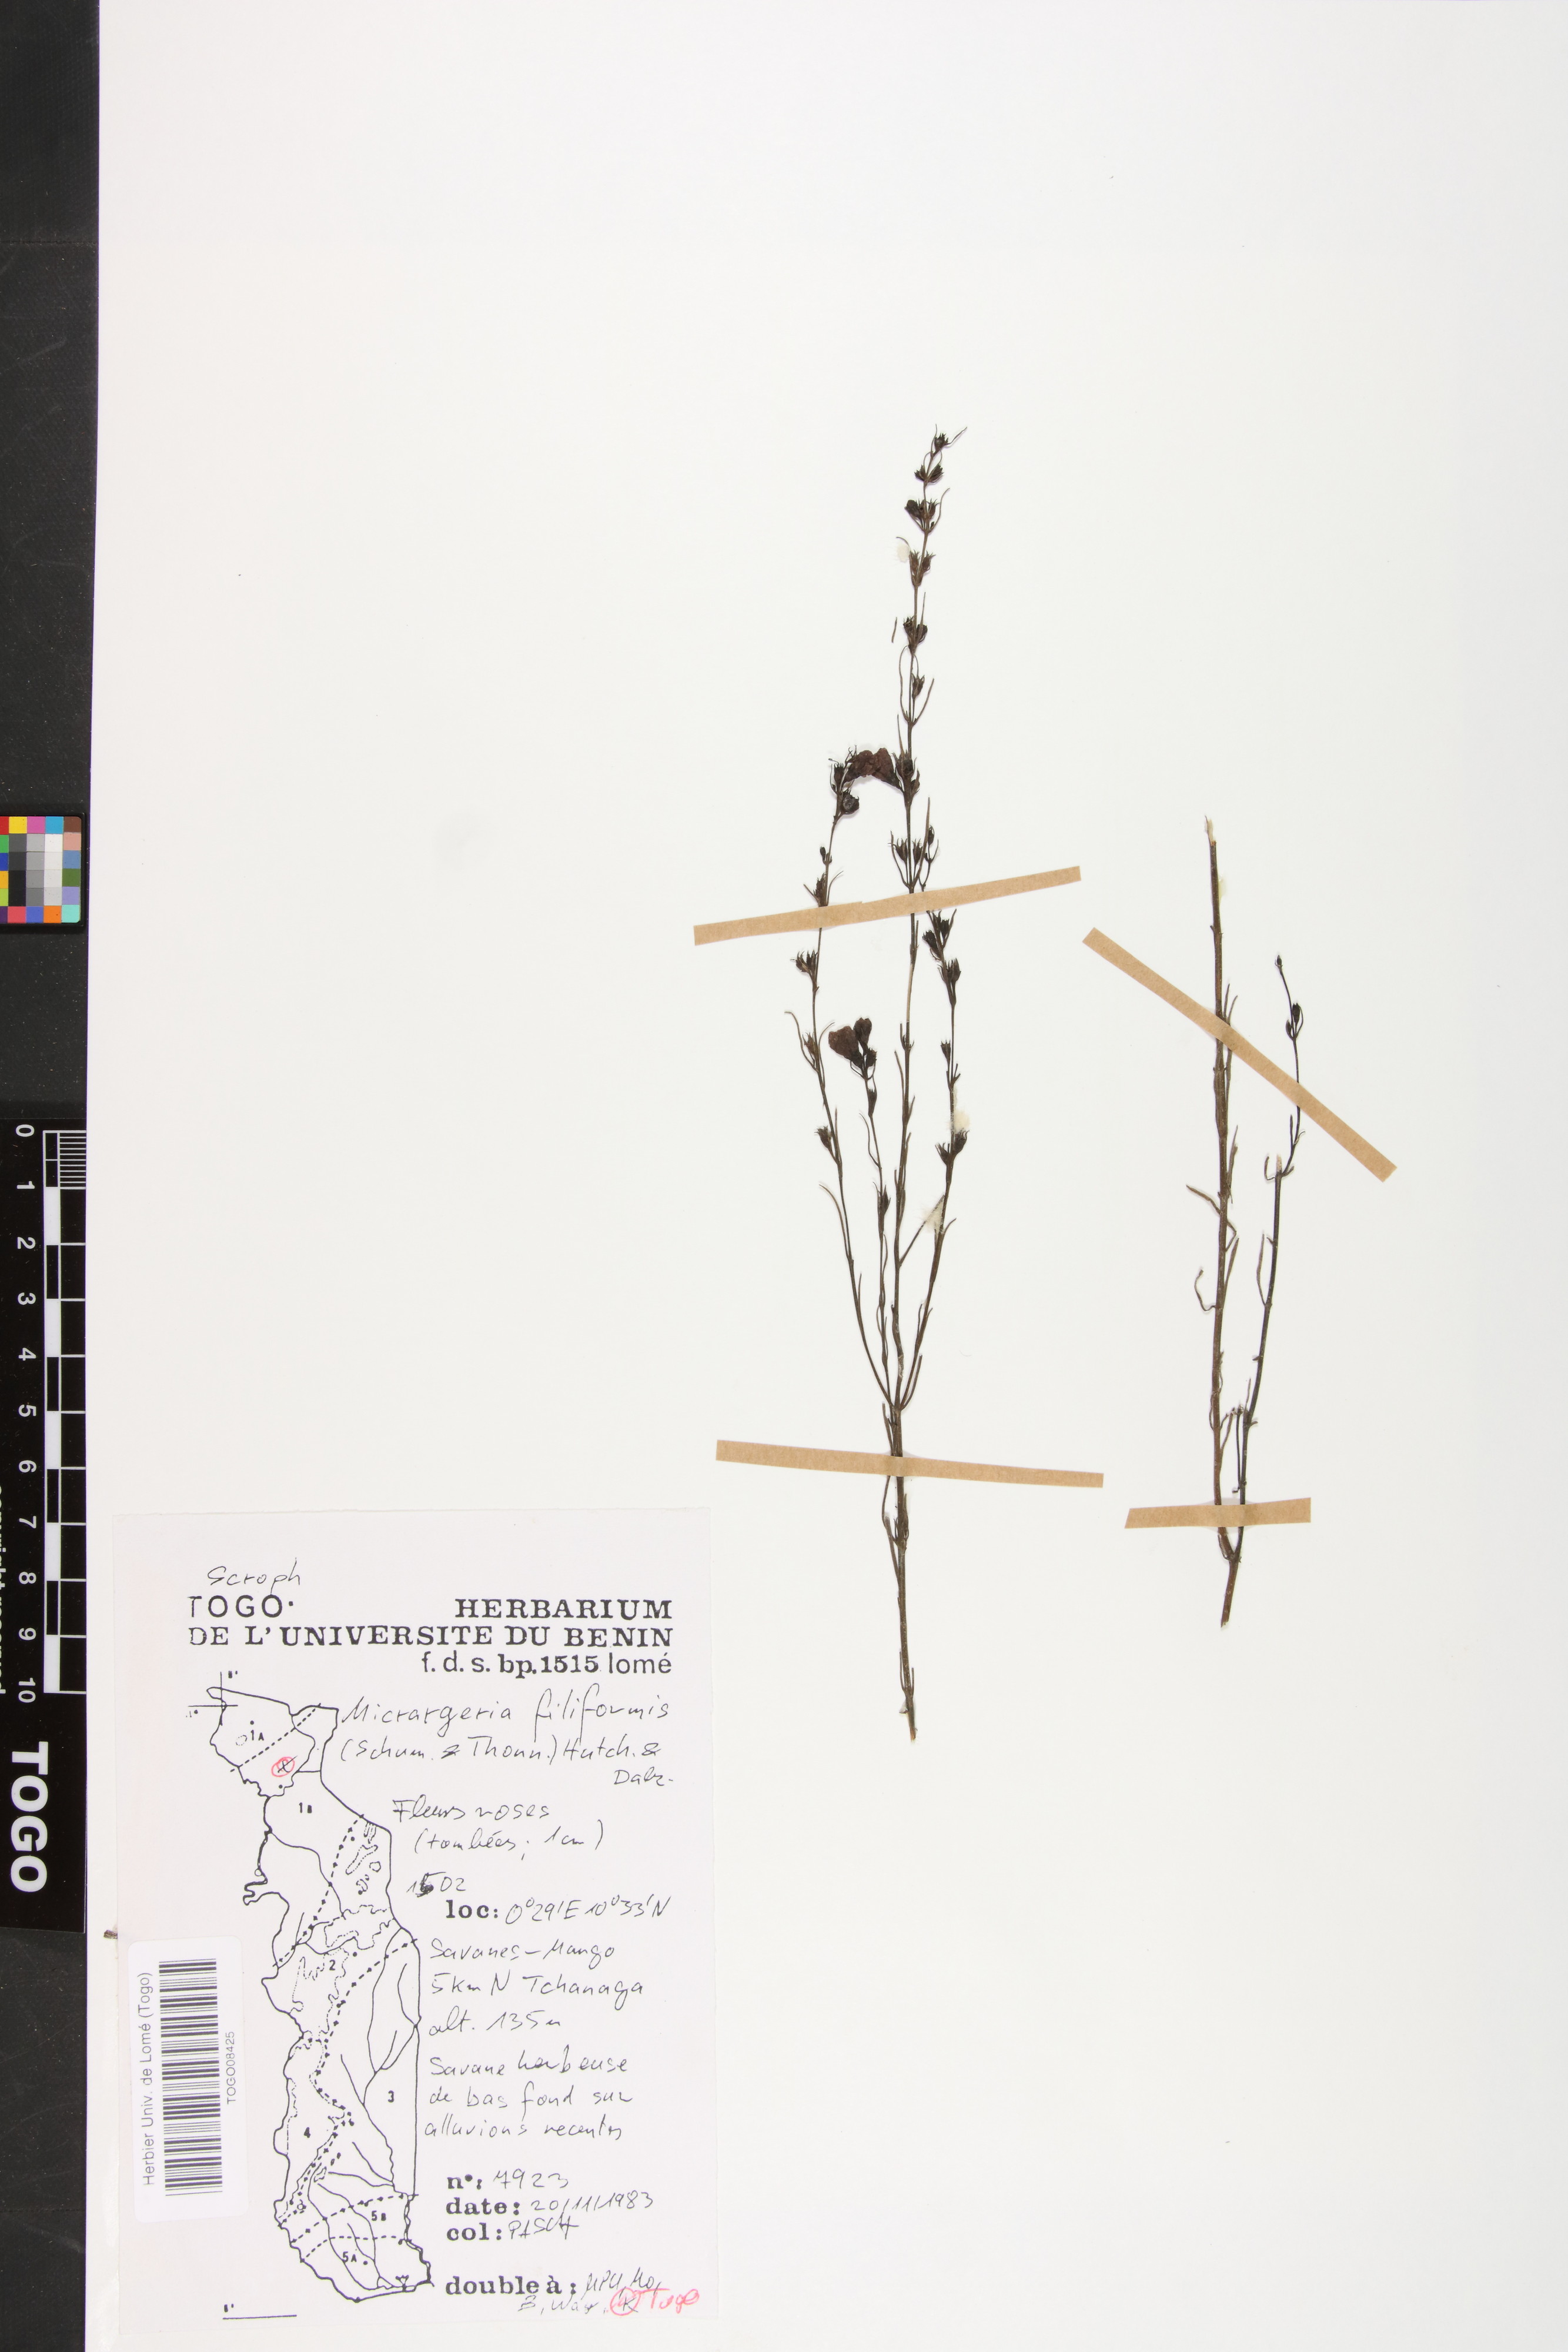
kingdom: Plantae
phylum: Tracheophyta
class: Magnoliopsida
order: Lamiales
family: Orobanchaceae
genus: Micrargeria
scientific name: Micrargeria filiformis
